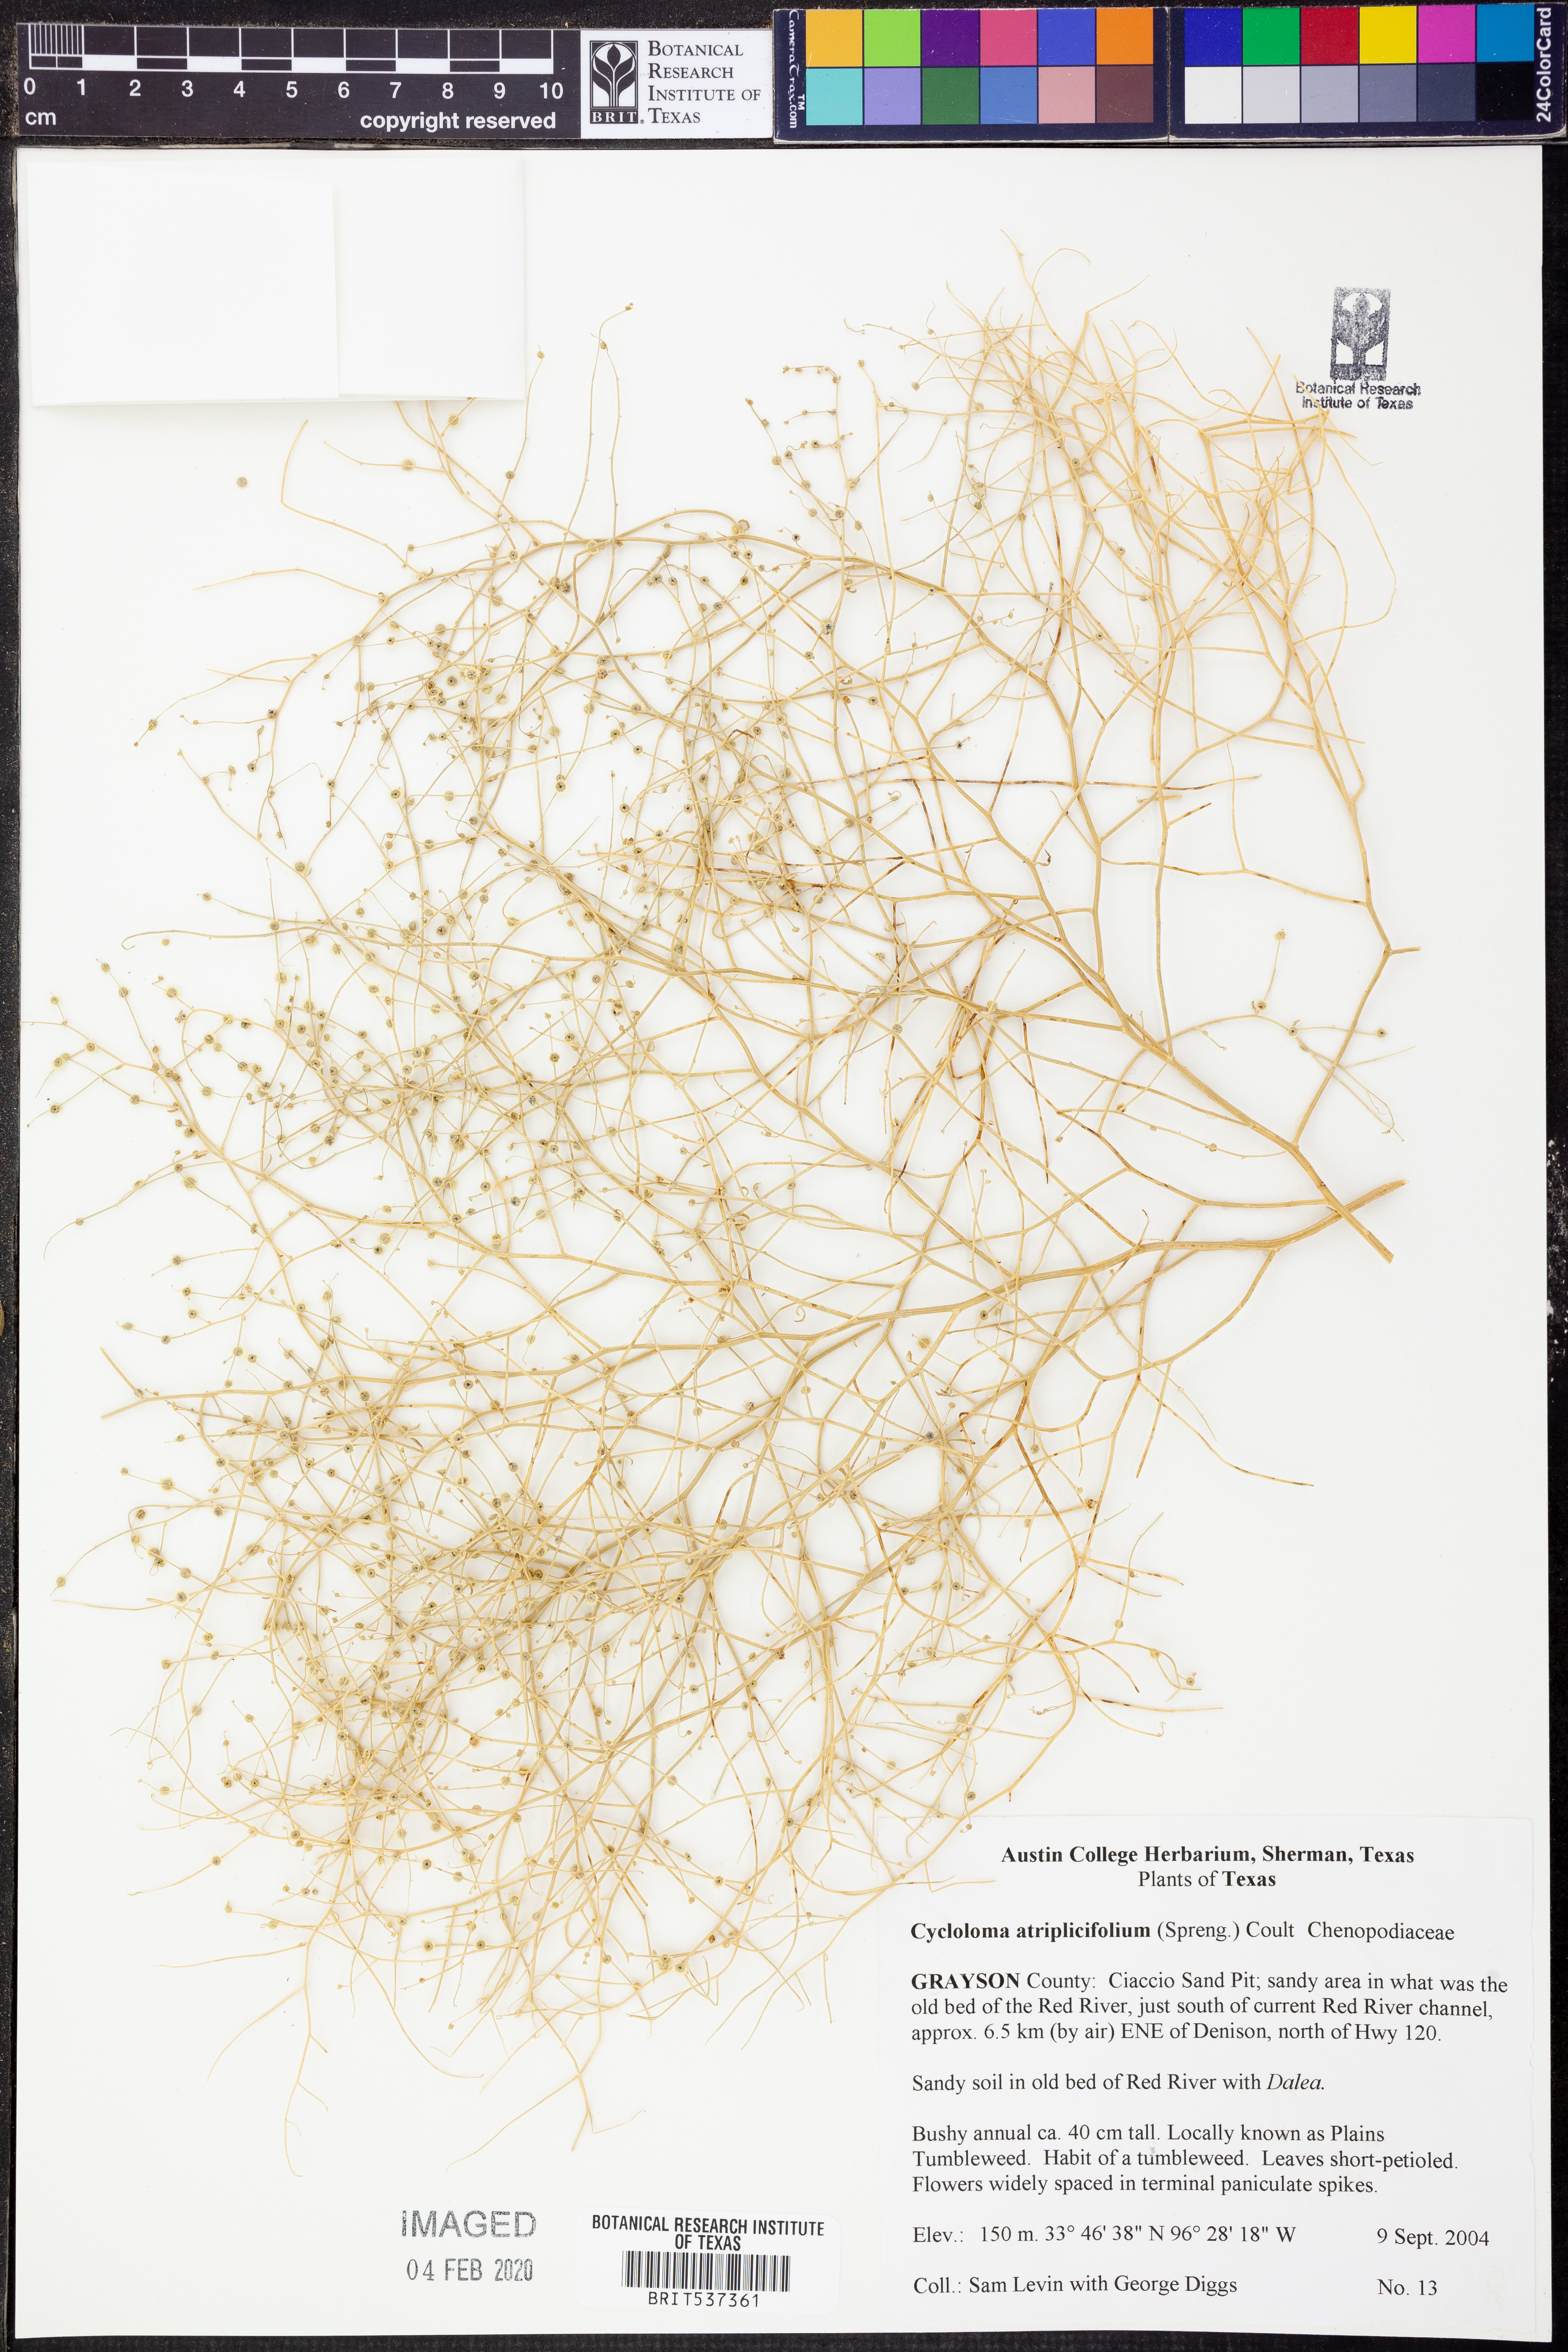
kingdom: Plantae
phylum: Tracheophyta
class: Magnoliopsida
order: Caryophyllales
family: Amaranthaceae
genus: Dysphania
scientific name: Dysphania atriplicifolia
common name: Plains tumbleweed
